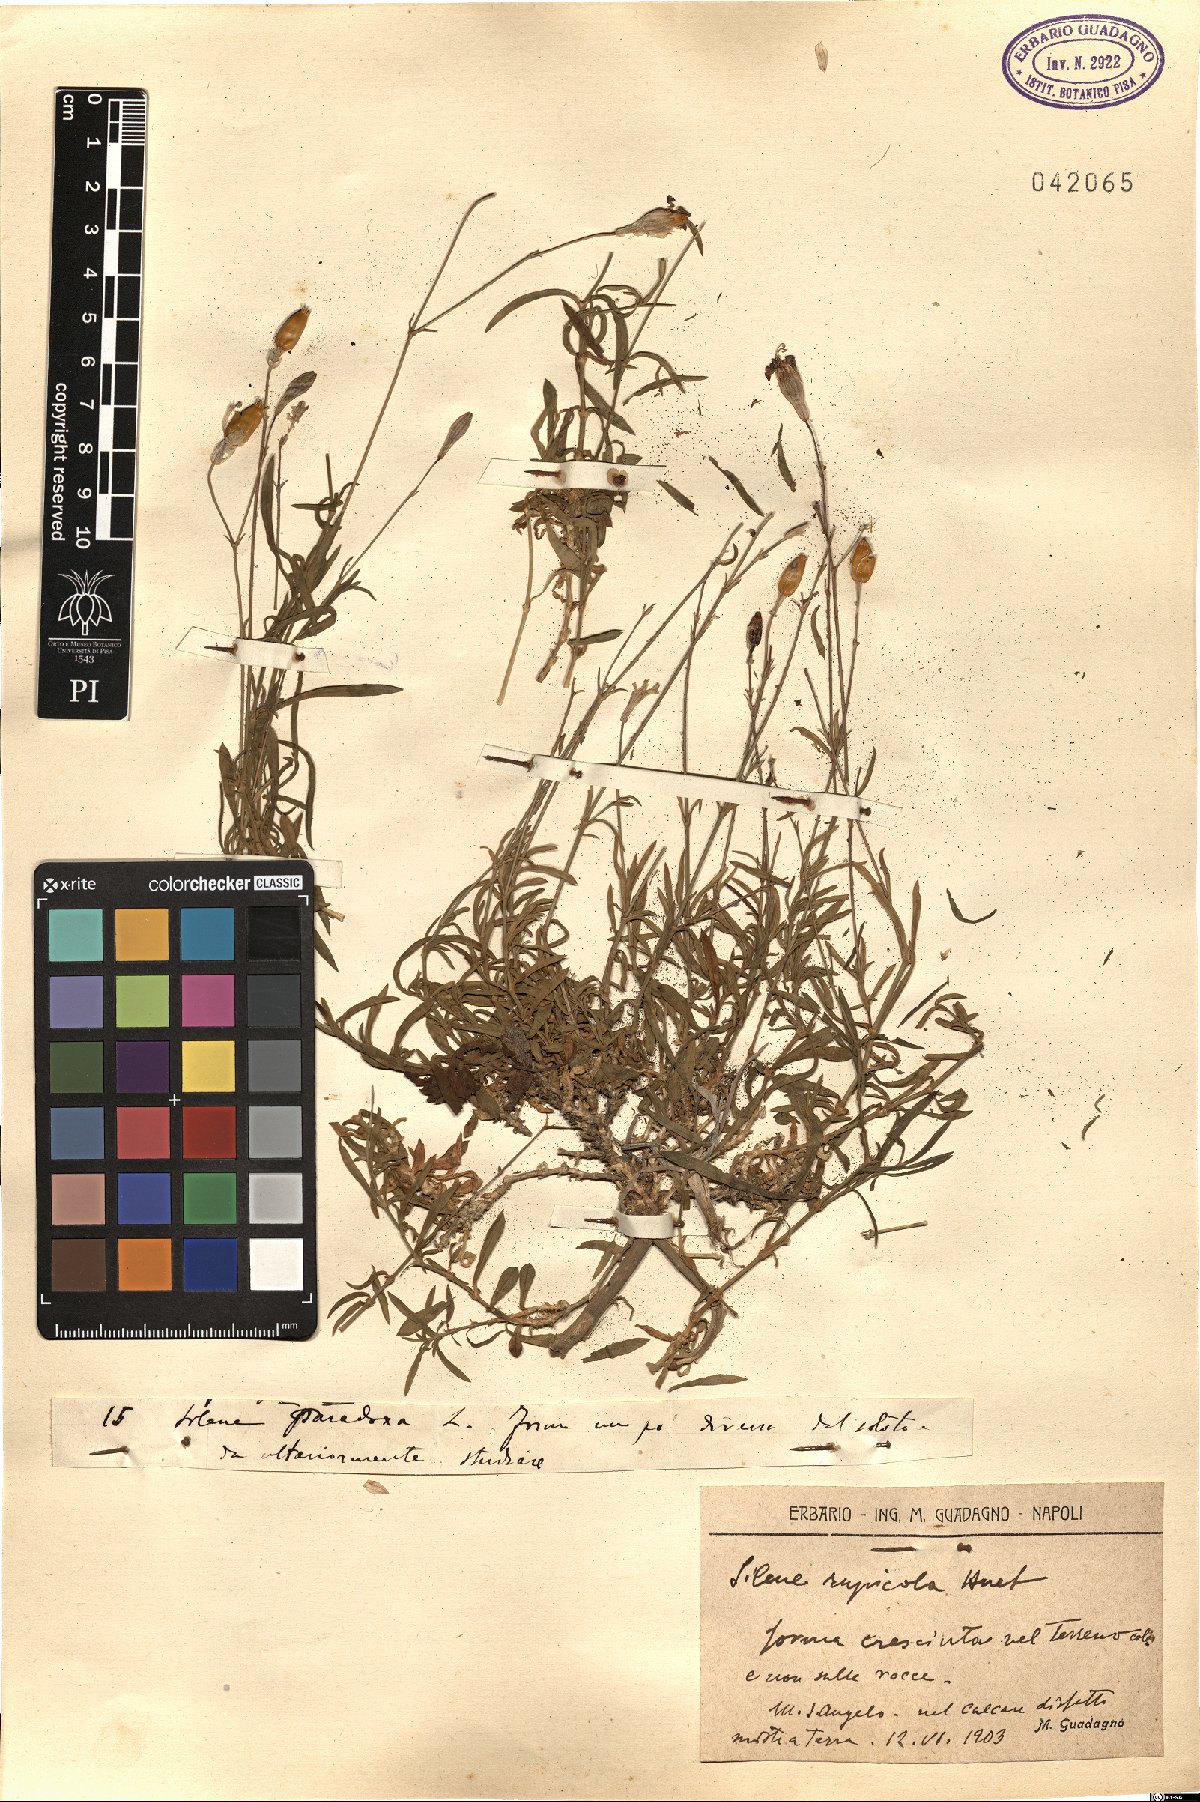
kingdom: Plantae
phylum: Tracheophyta
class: Magnoliopsida
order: Caryophyllales
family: Caryophyllaceae
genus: Silene
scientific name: Silene saxifraga
